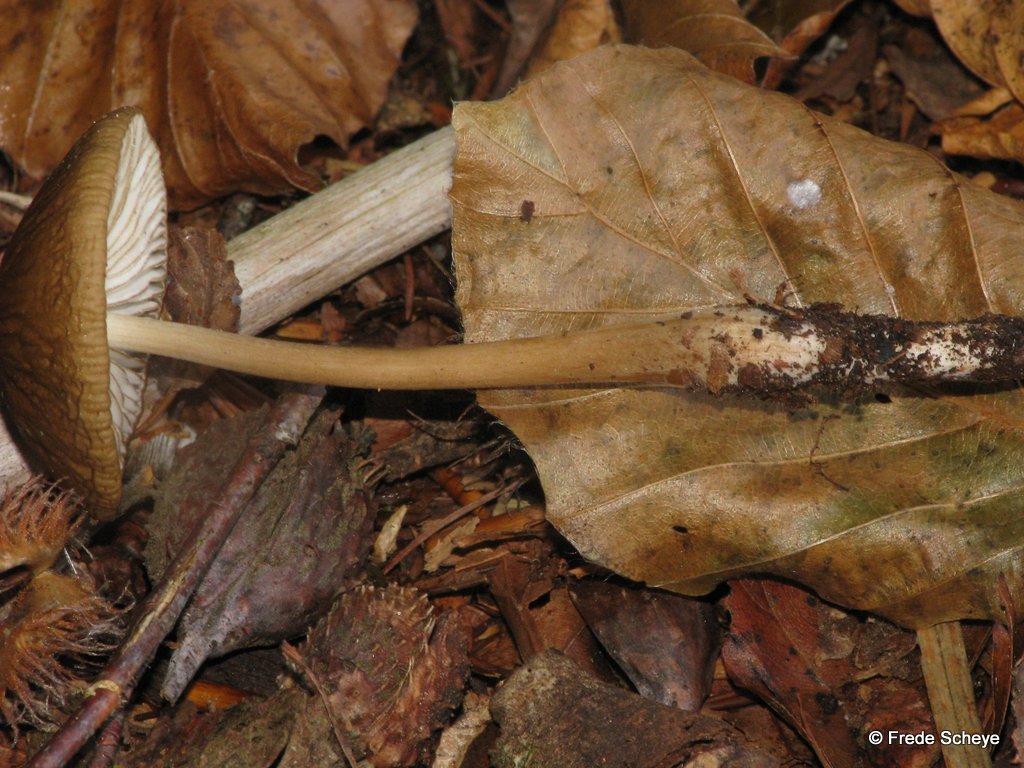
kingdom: Fungi
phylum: Basidiomycota
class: Agaricomycetes
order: Agaricales
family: Physalacriaceae
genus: Hymenopellis
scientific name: Hymenopellis radicata
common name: almindelig pælerodshat
